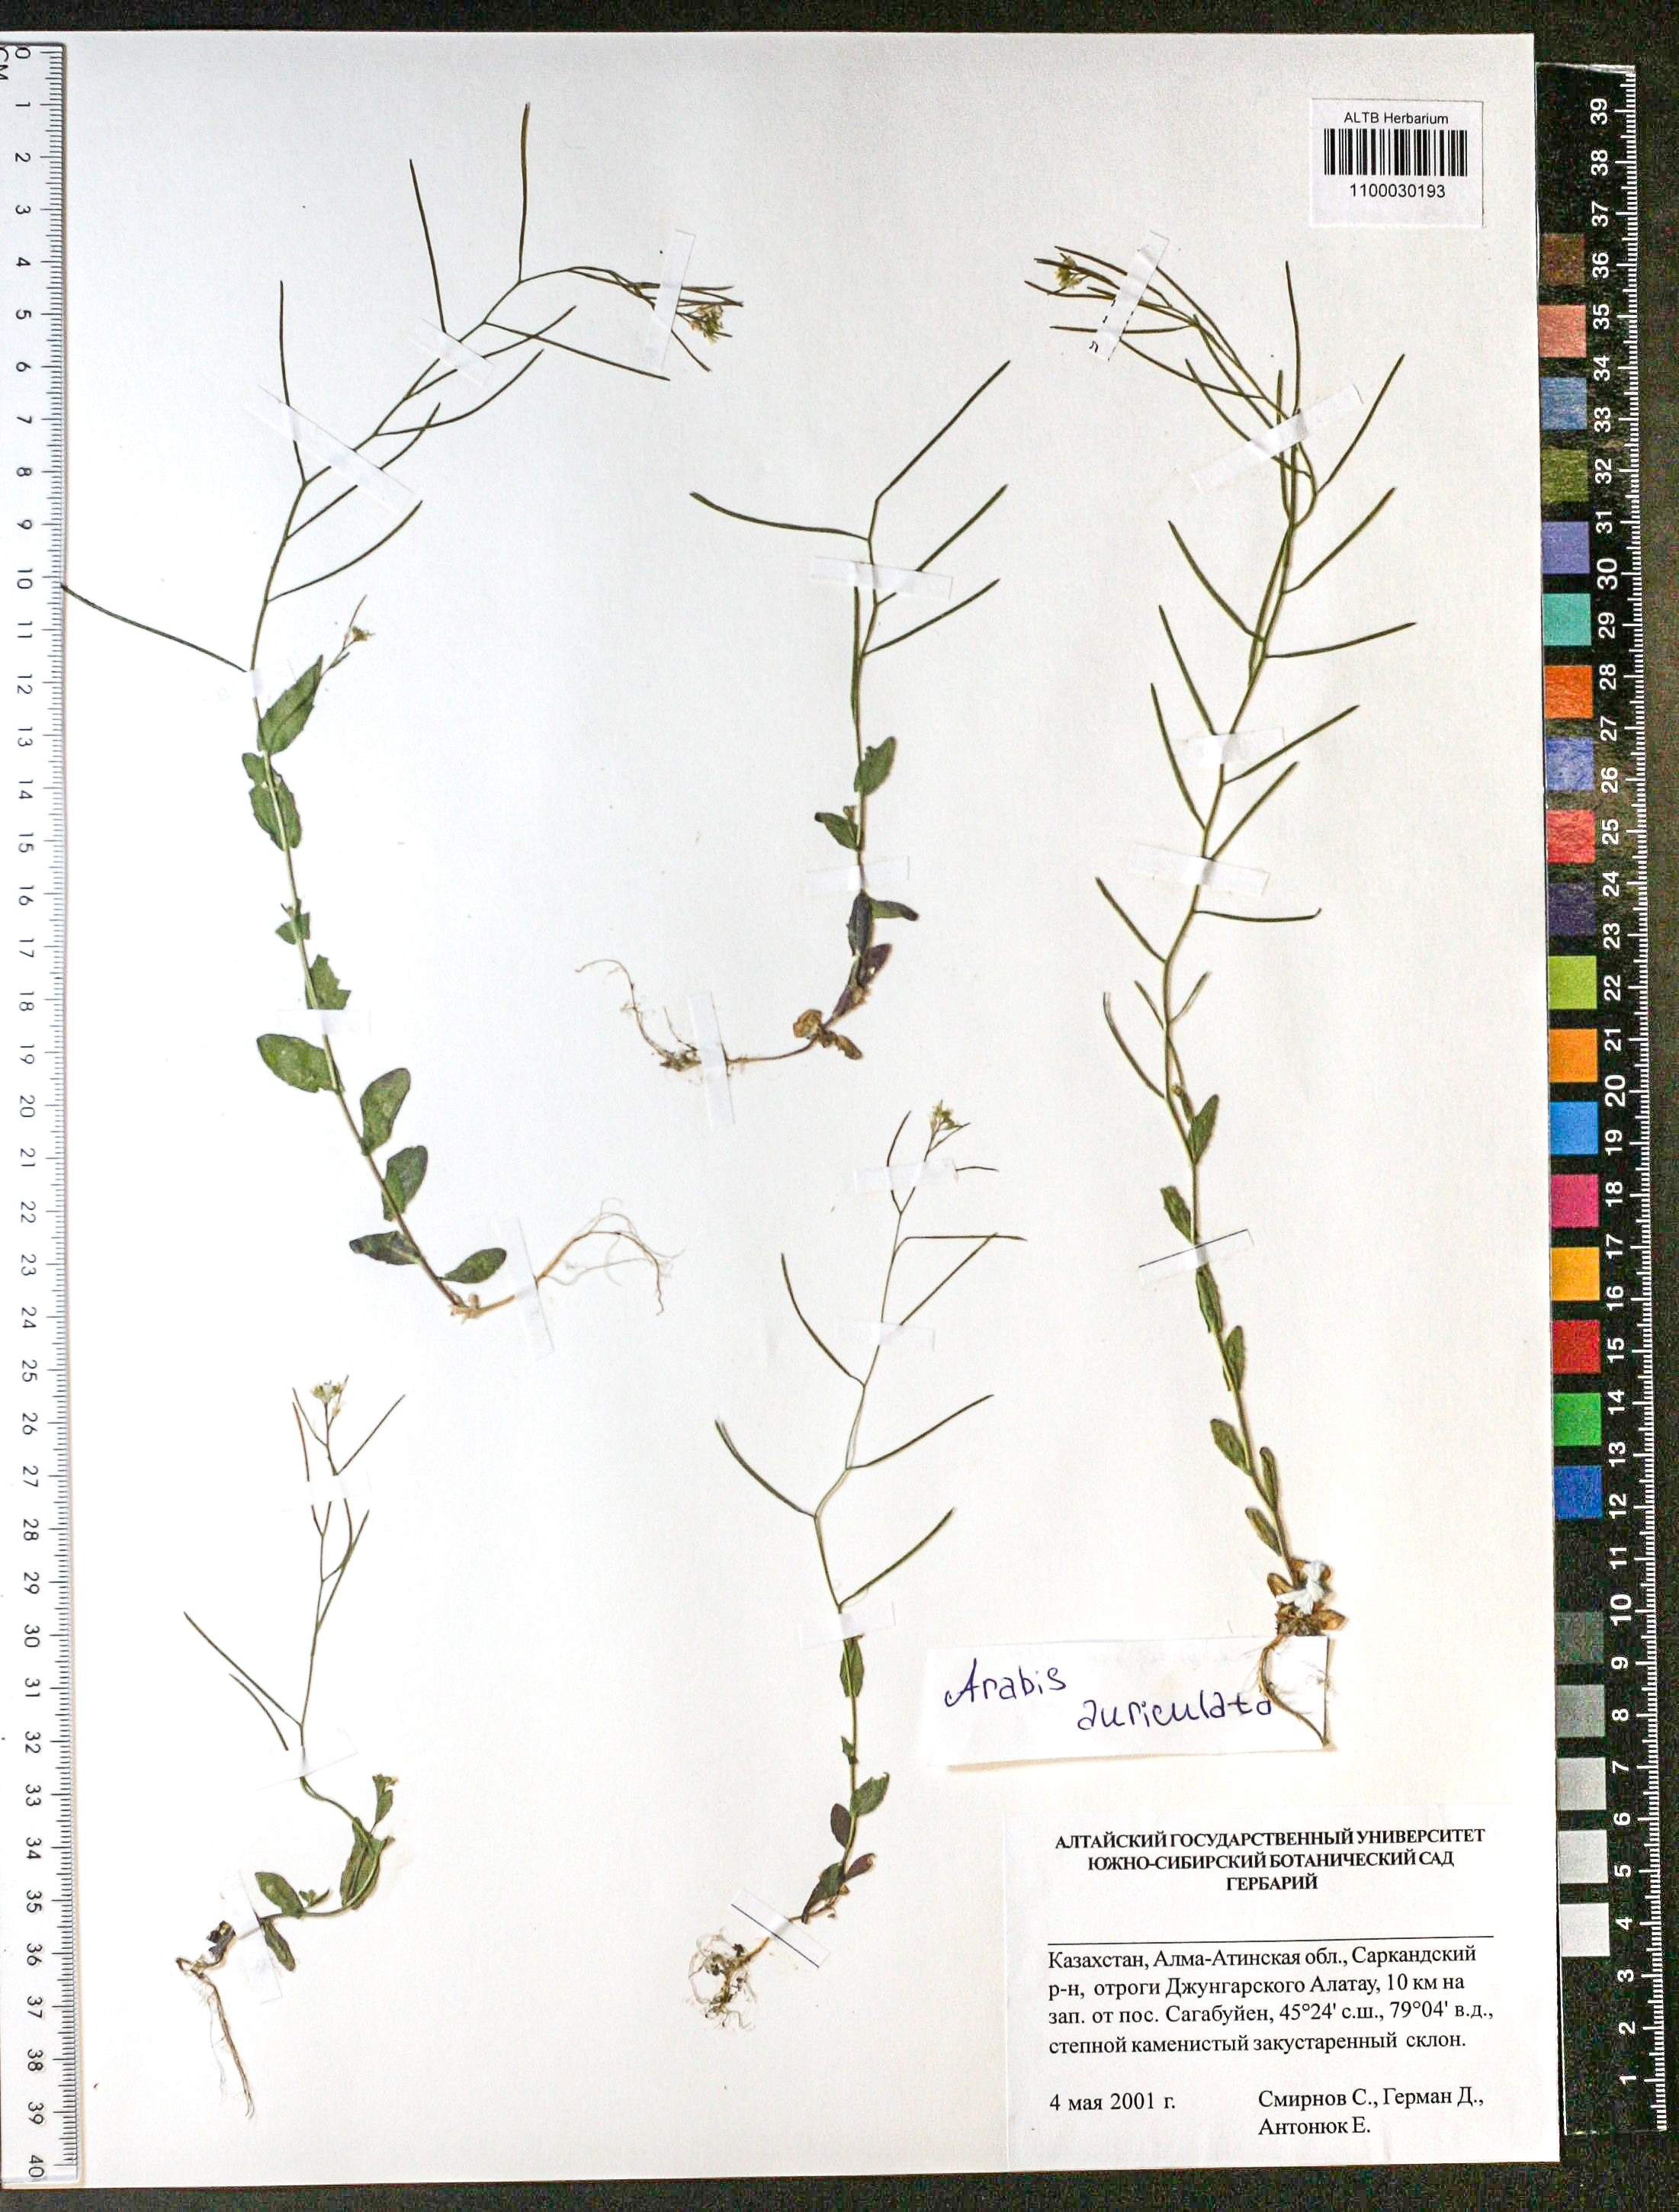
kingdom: Plantae
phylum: Tracheophyta
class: Magnoliopsida
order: Brassicales
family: Brassicaceae
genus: Arabis
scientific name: Arabis auriculata
